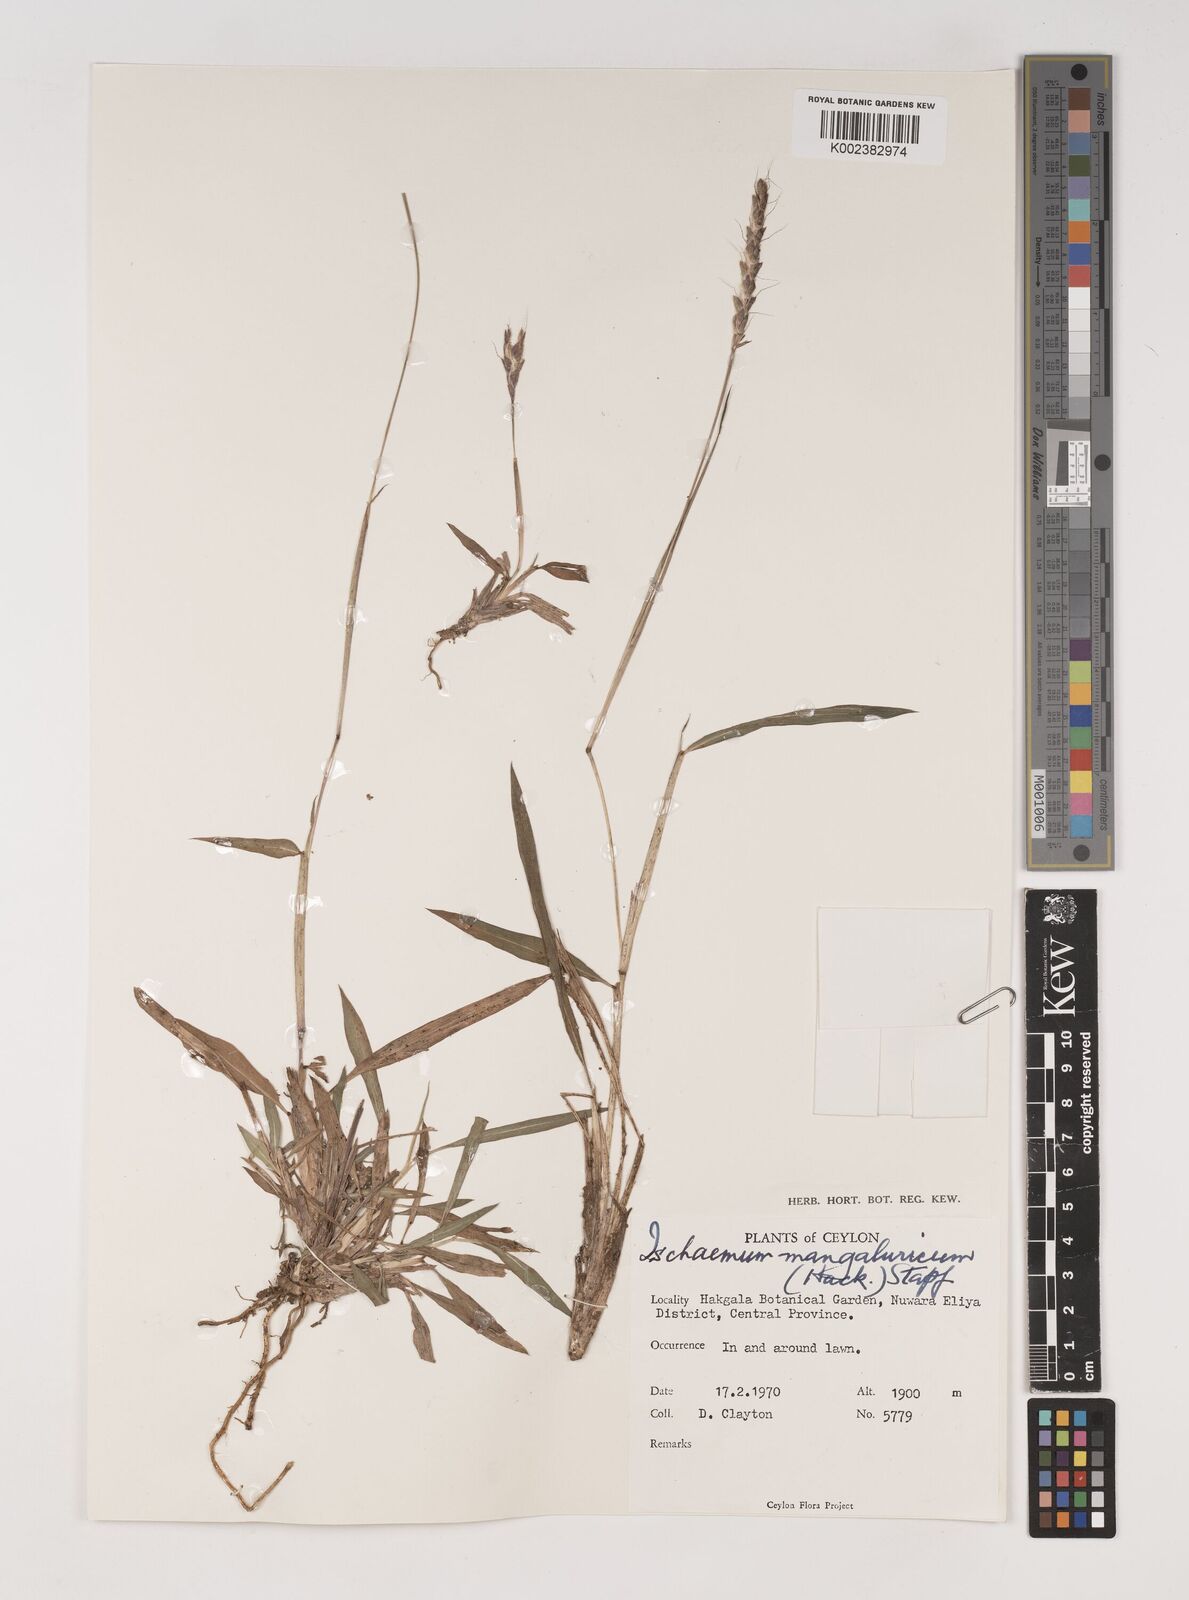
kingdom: Plantae
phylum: Tracheophyta
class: Liliopsida
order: Poales
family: Poaceae
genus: Ischaemum
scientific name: Ischaemum barbatum
